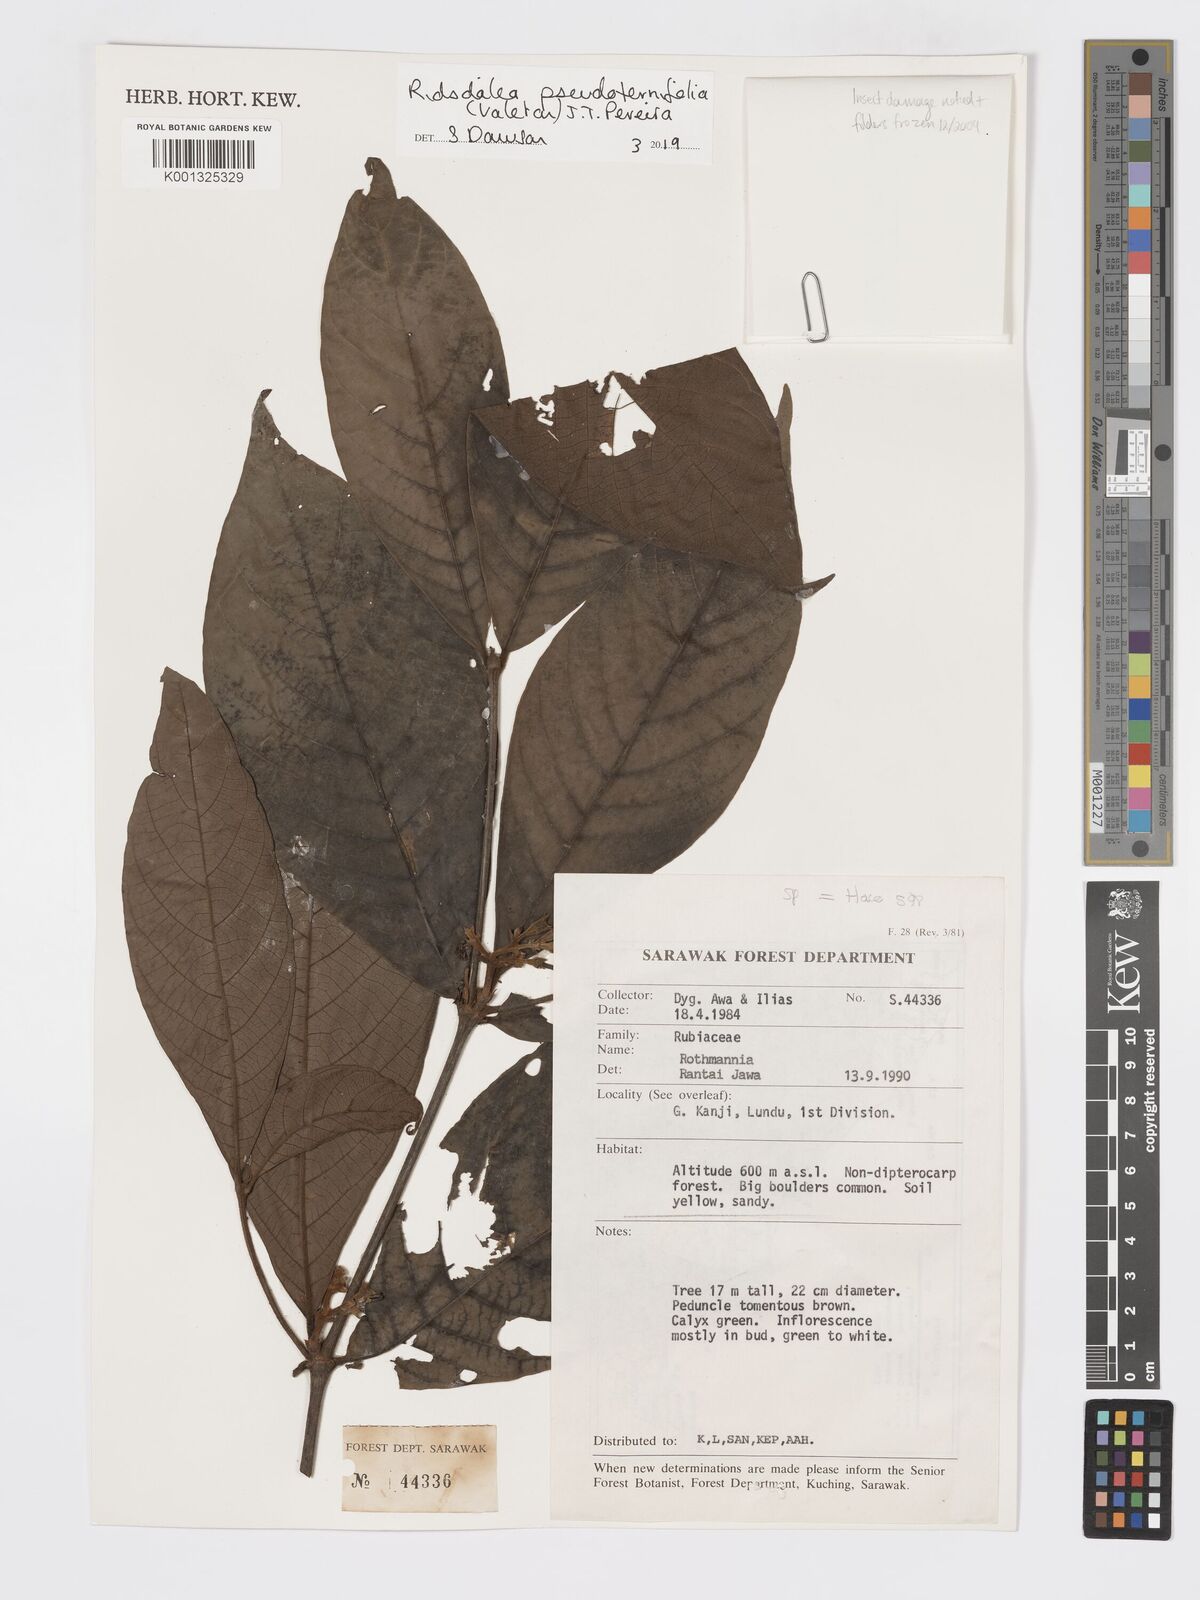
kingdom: Plantae
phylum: Tracheophyta
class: Magnoliopsida
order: Gentianales
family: Rubiaceae
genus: Ridsdalea
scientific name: Ridsdalea pseudoternifolia
